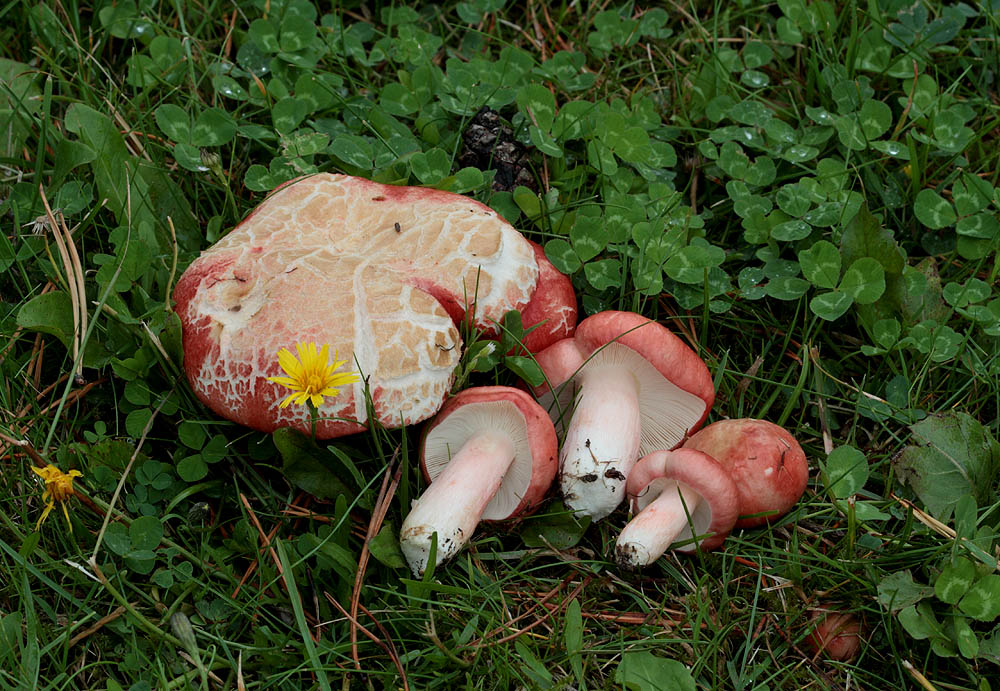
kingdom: Fungi
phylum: Basidiomycota
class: Agaricomycetes
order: Russulales
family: Russulaceae
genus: Russula
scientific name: Russula sanguinea
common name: blodrød skørhat
